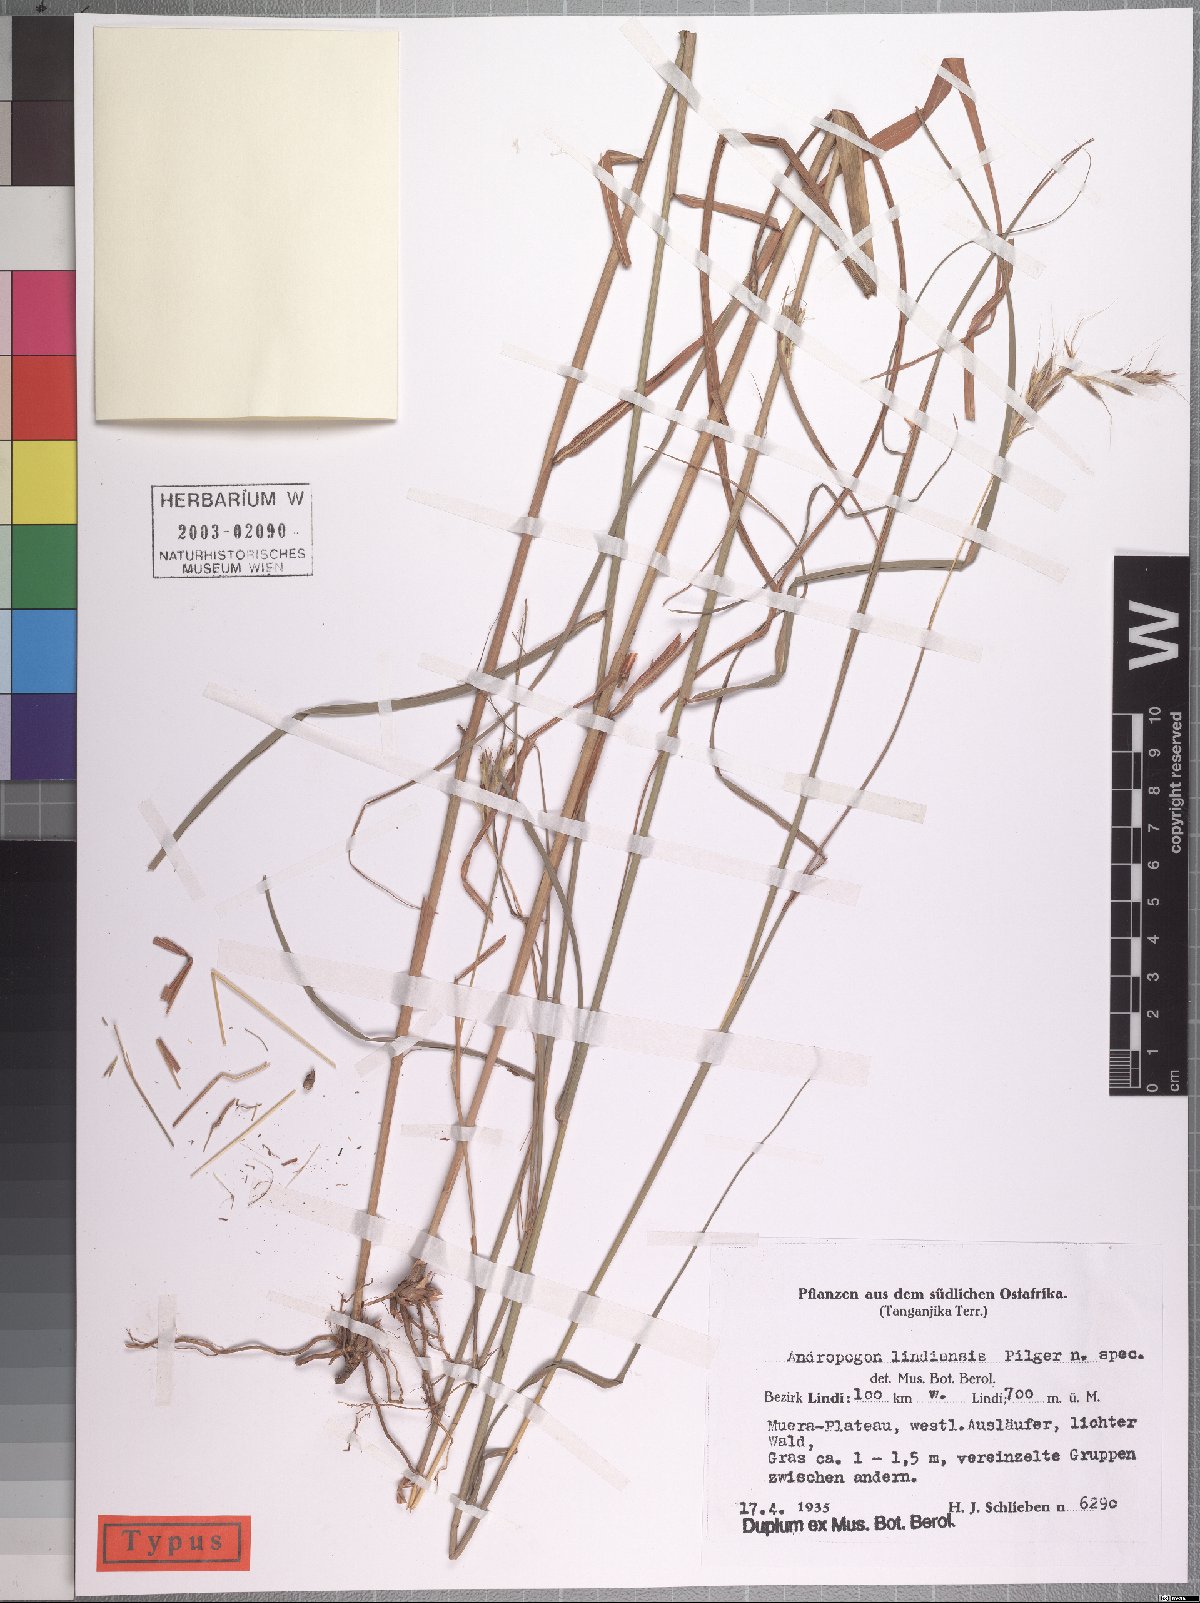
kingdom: Plantae
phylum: Tracheophyta
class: Liliopsida
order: Poales
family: Poaceae
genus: Andropogon
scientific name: Andropogon chinensis
